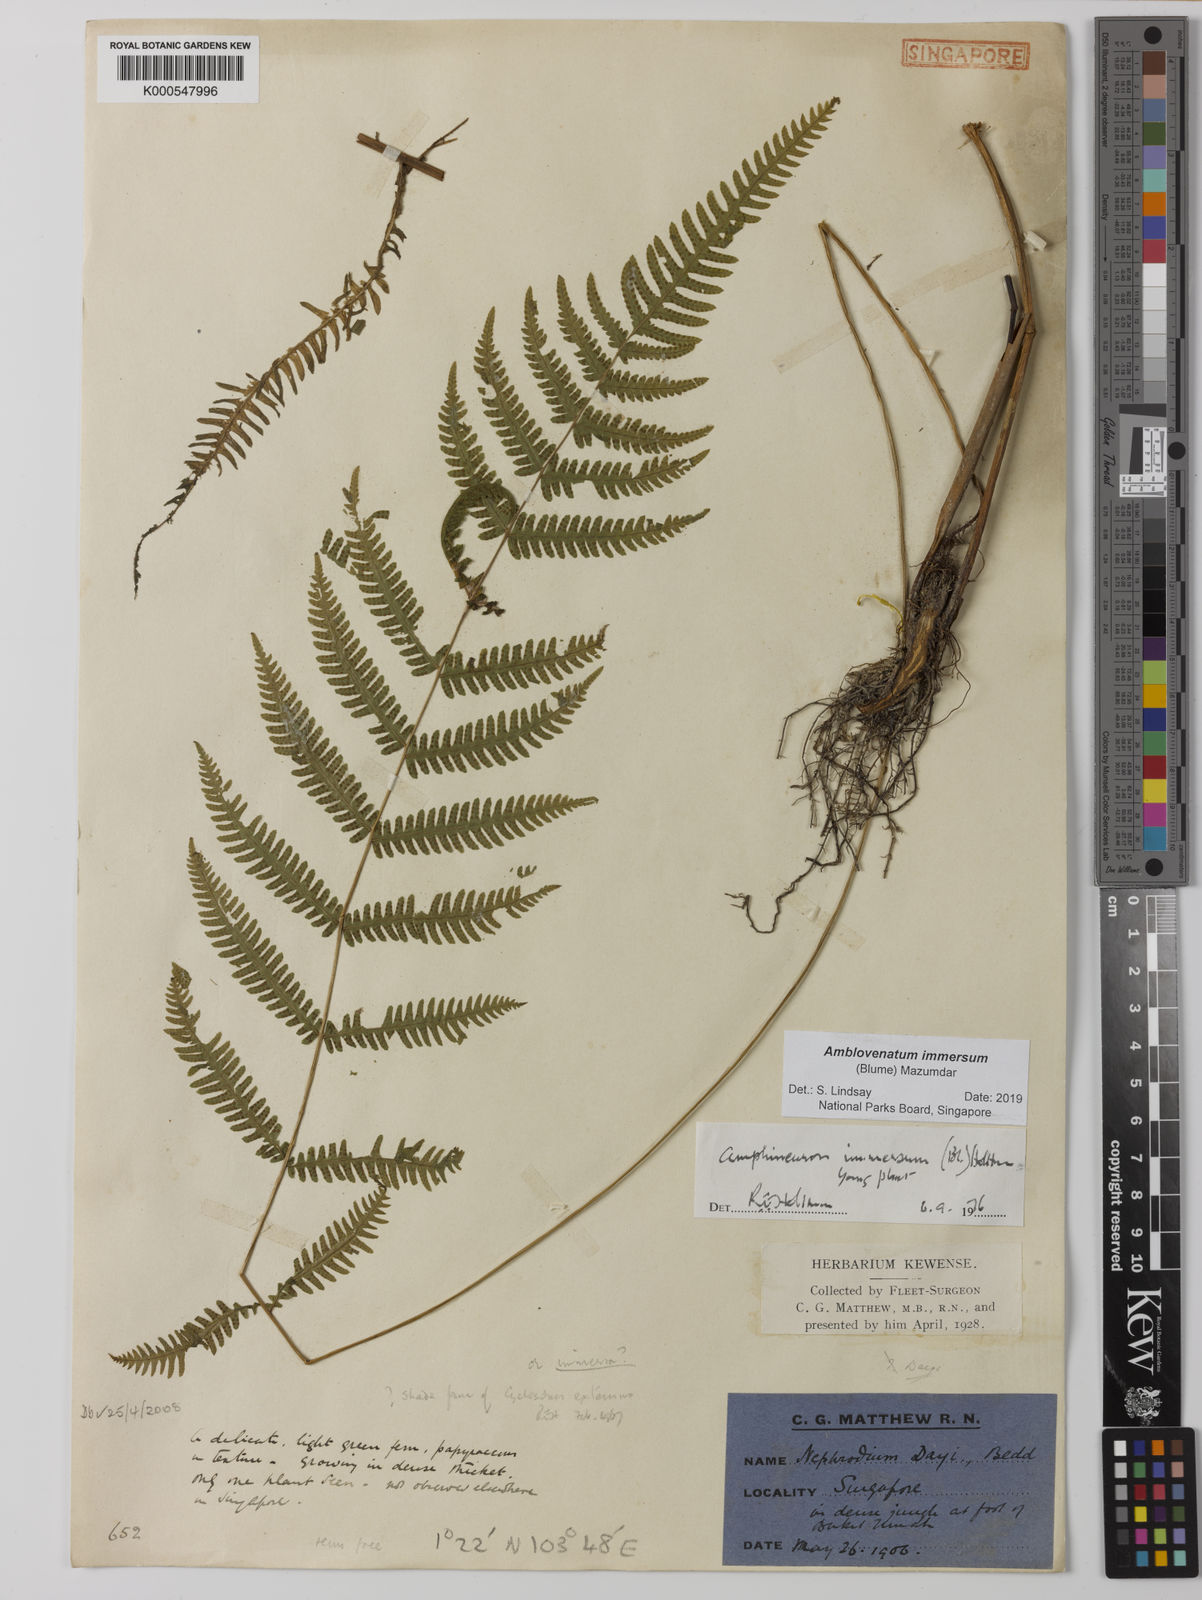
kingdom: Plantae
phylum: Tracheophyta
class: Polypodiopsida
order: Polypodiales
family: Thelypteridaceae
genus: Amblovenatum
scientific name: Amblovenatum immersum
